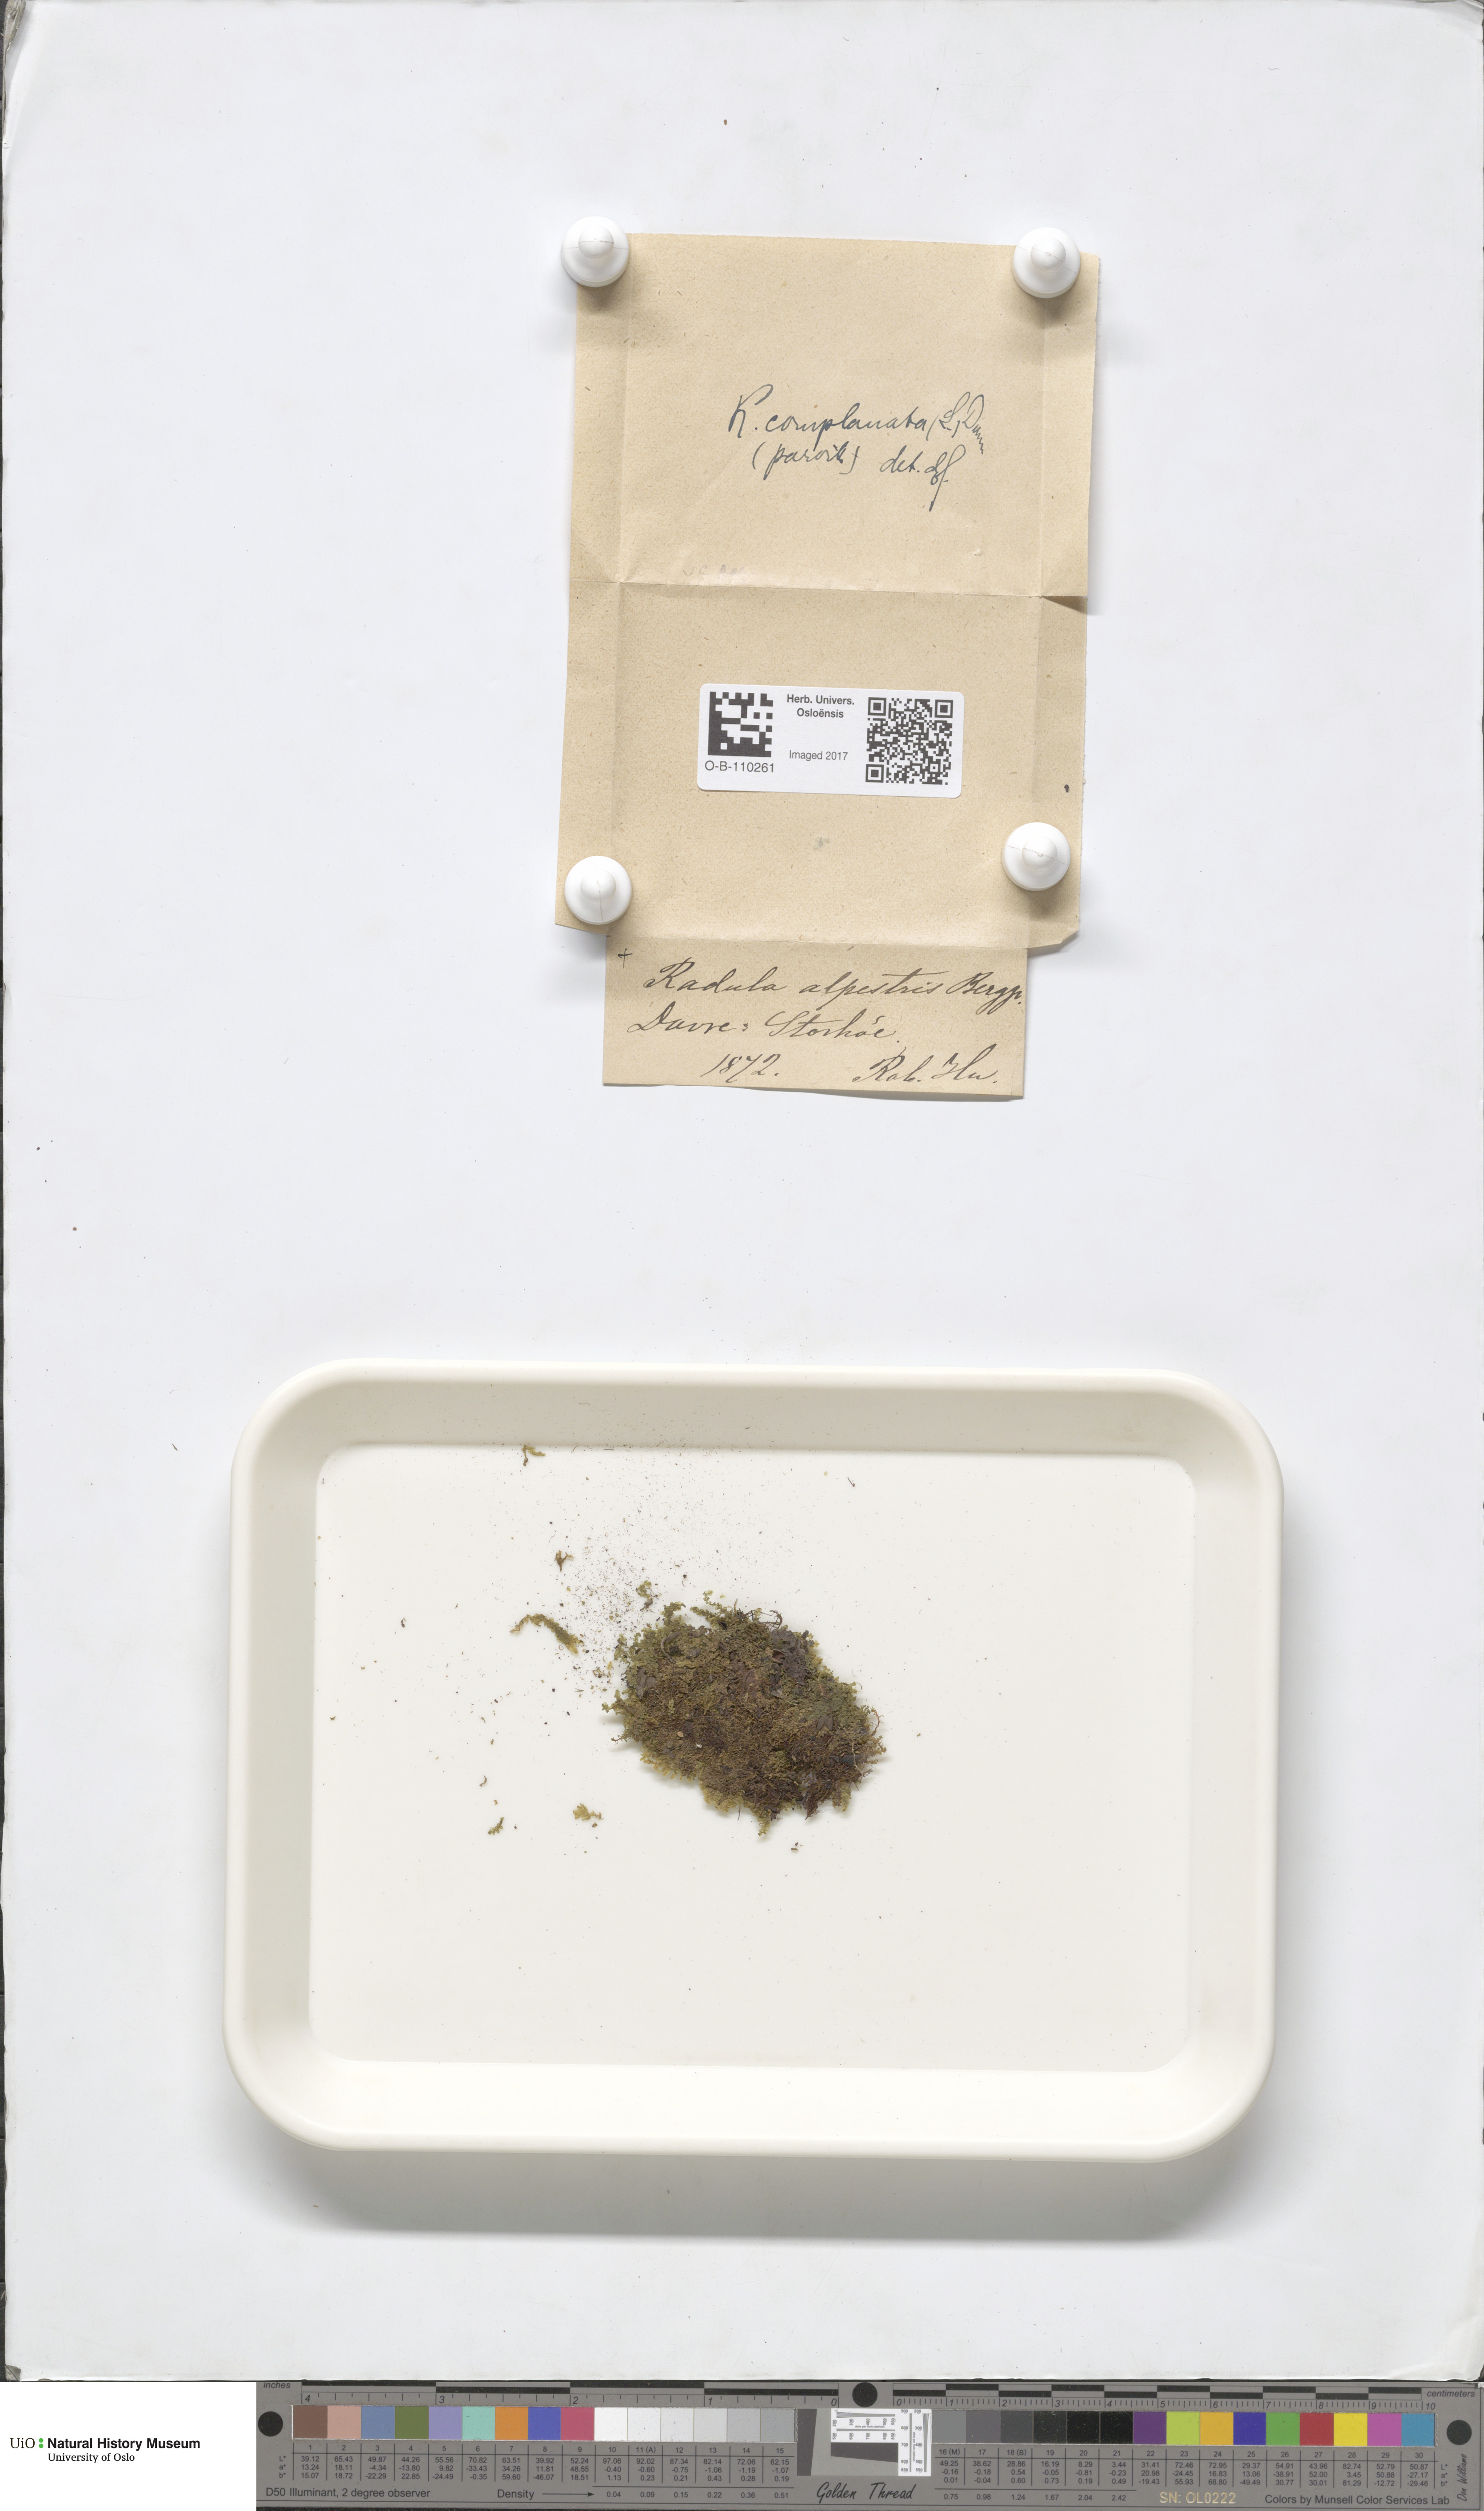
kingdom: Plantae
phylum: Marchantiophyta
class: Jungermanniopsida
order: Jungermanniales
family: Lophoziaceae
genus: Trilophozia
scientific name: Trilophozia quinquedentata
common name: Large notchwort
